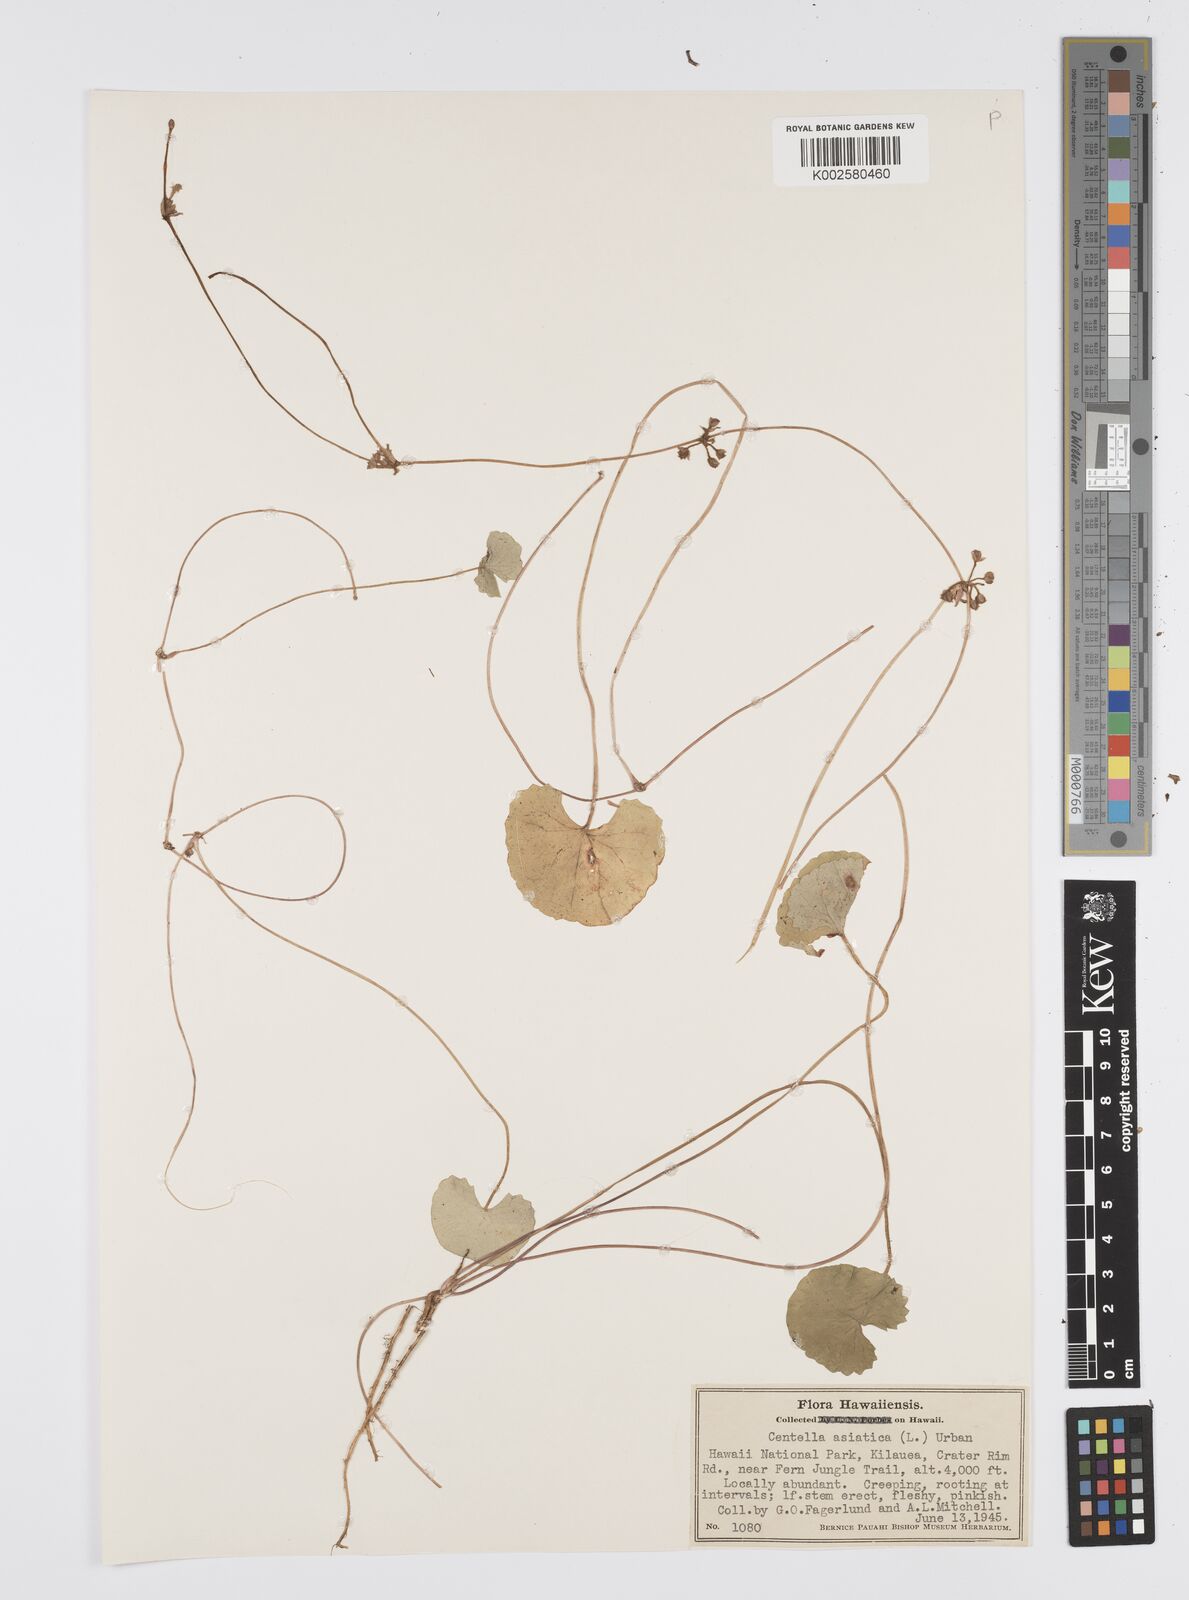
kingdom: Plantae
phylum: Tracheophyta
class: Magnoliopsida
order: Apiales
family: Apiaceae
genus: Centella
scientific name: Centella asiatica
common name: Spadeleaf
